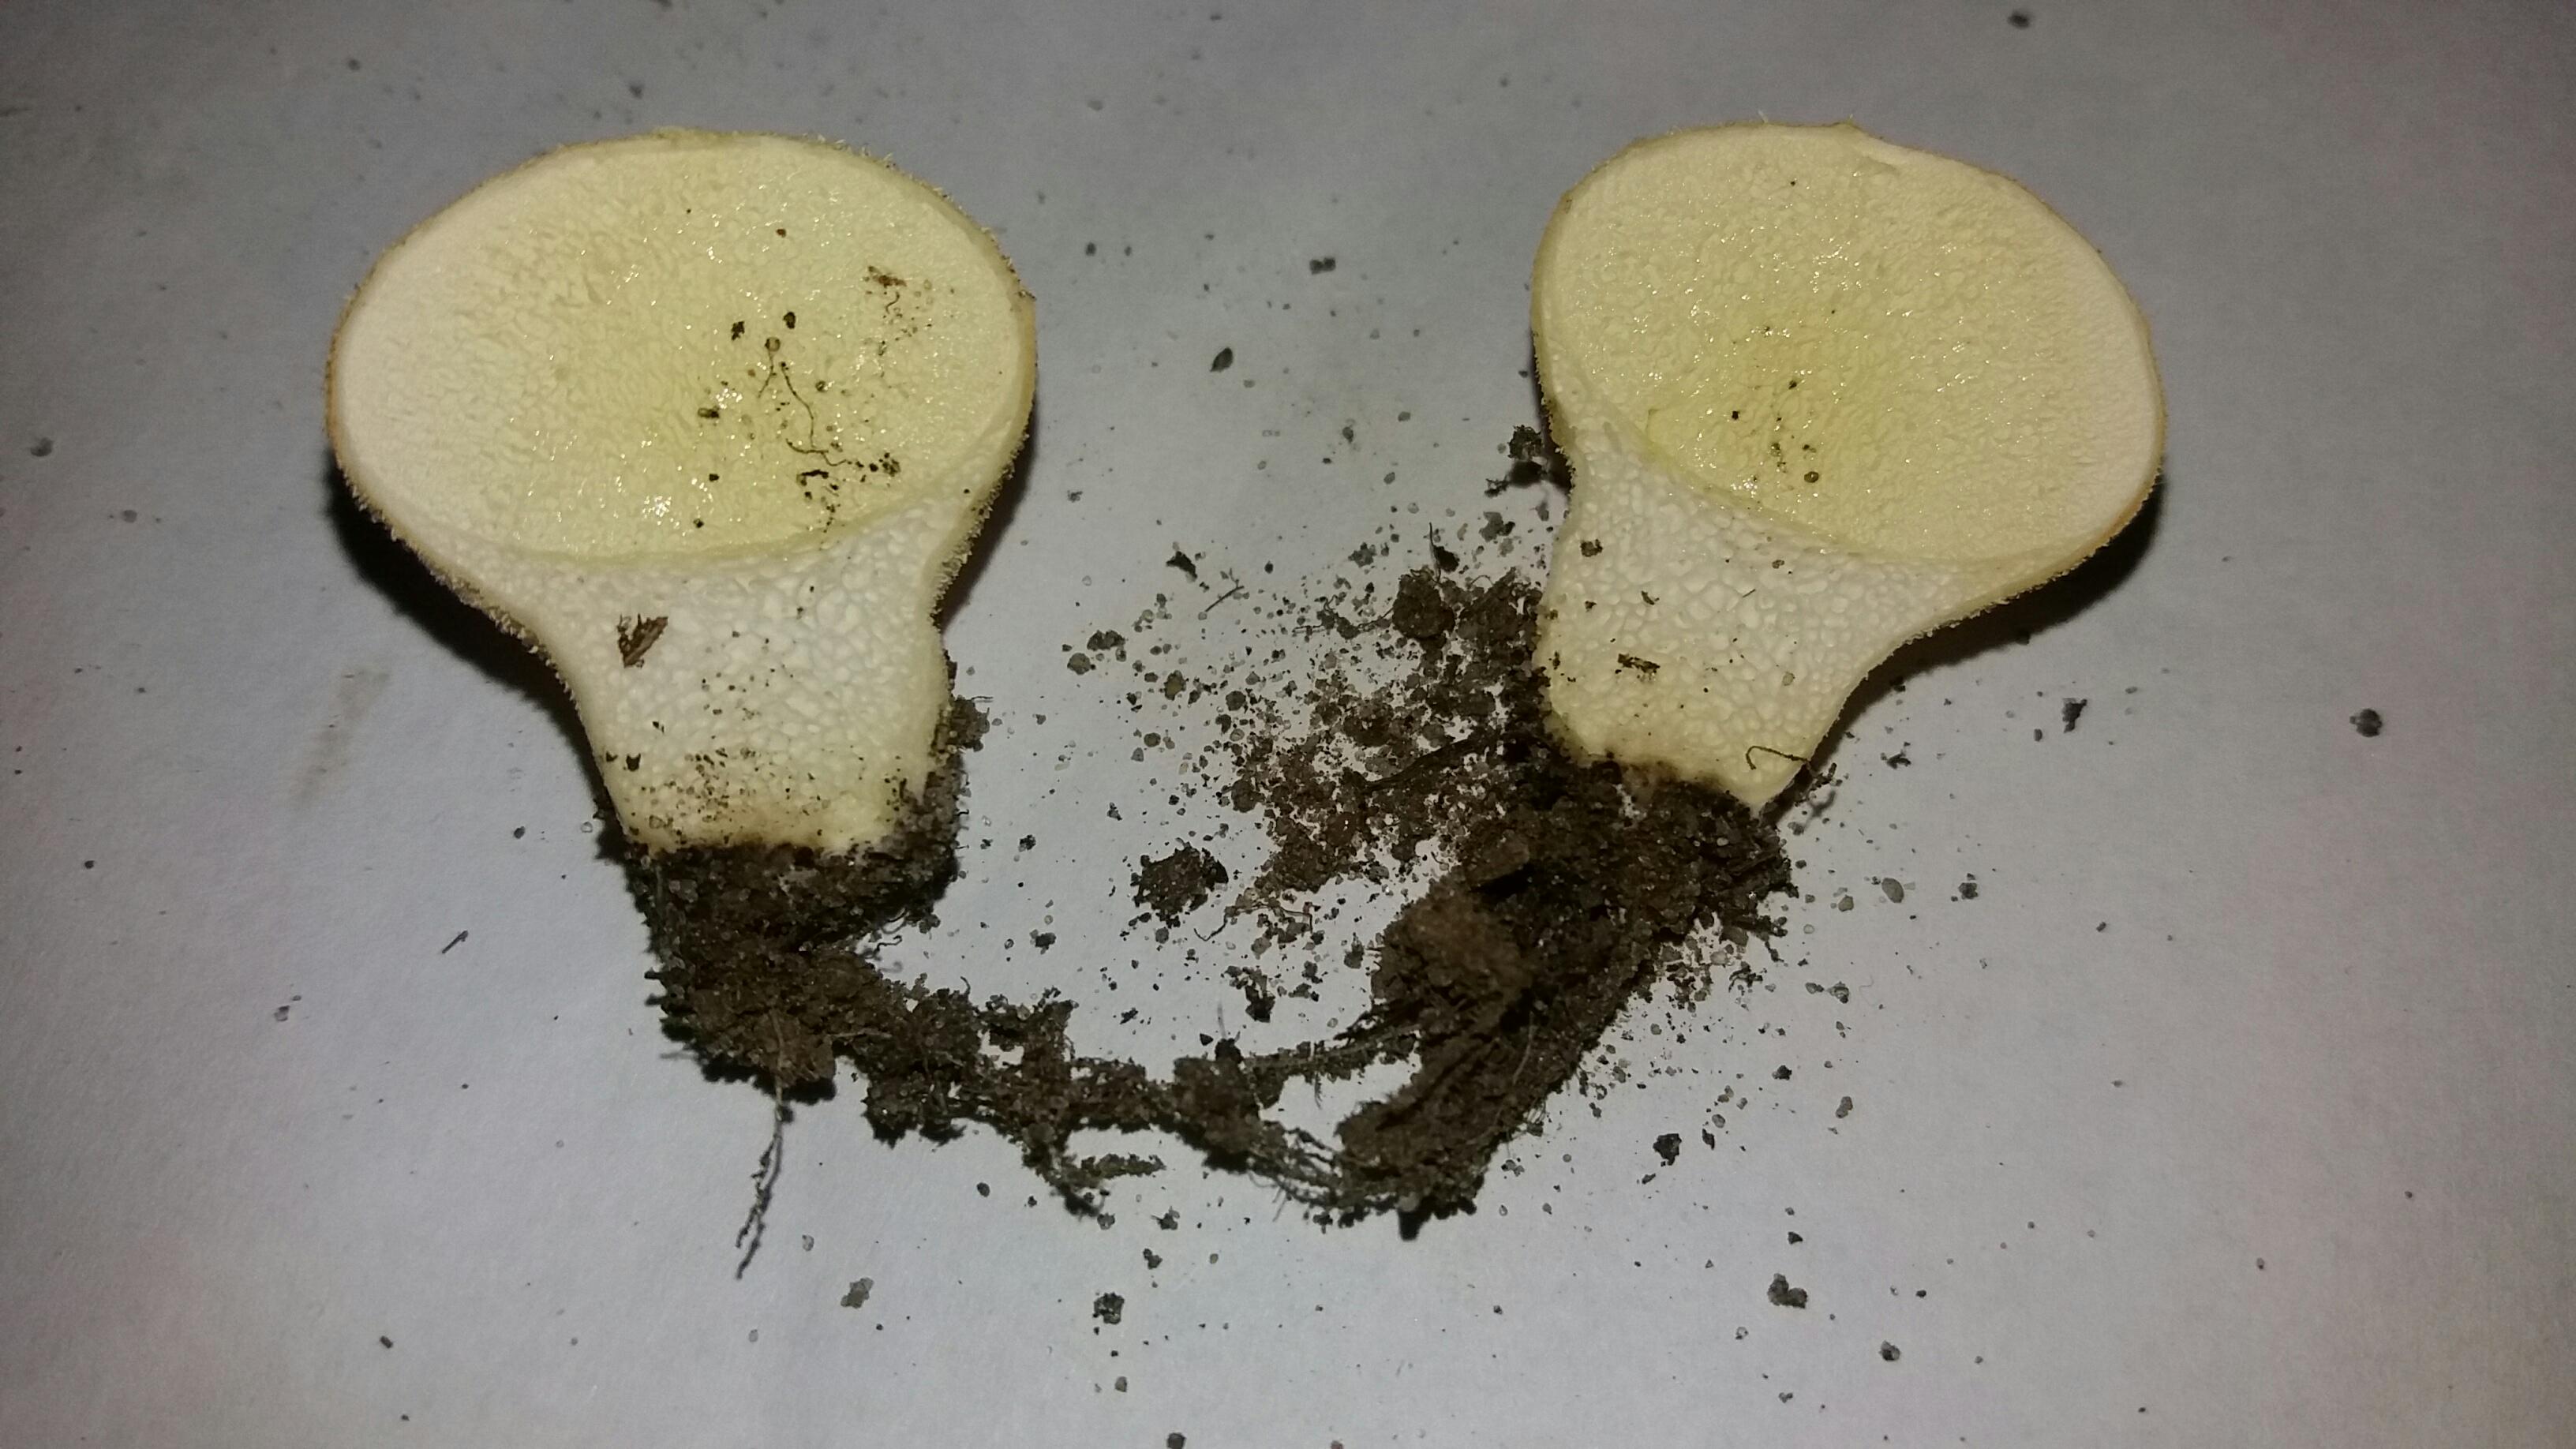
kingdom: Fungi
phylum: Basidiomycota
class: Agaricomycetes
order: Agaricales
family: Lycoperdaceae
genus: Lycoperdon
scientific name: Lycoperdon pratense
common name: flad støvbold
